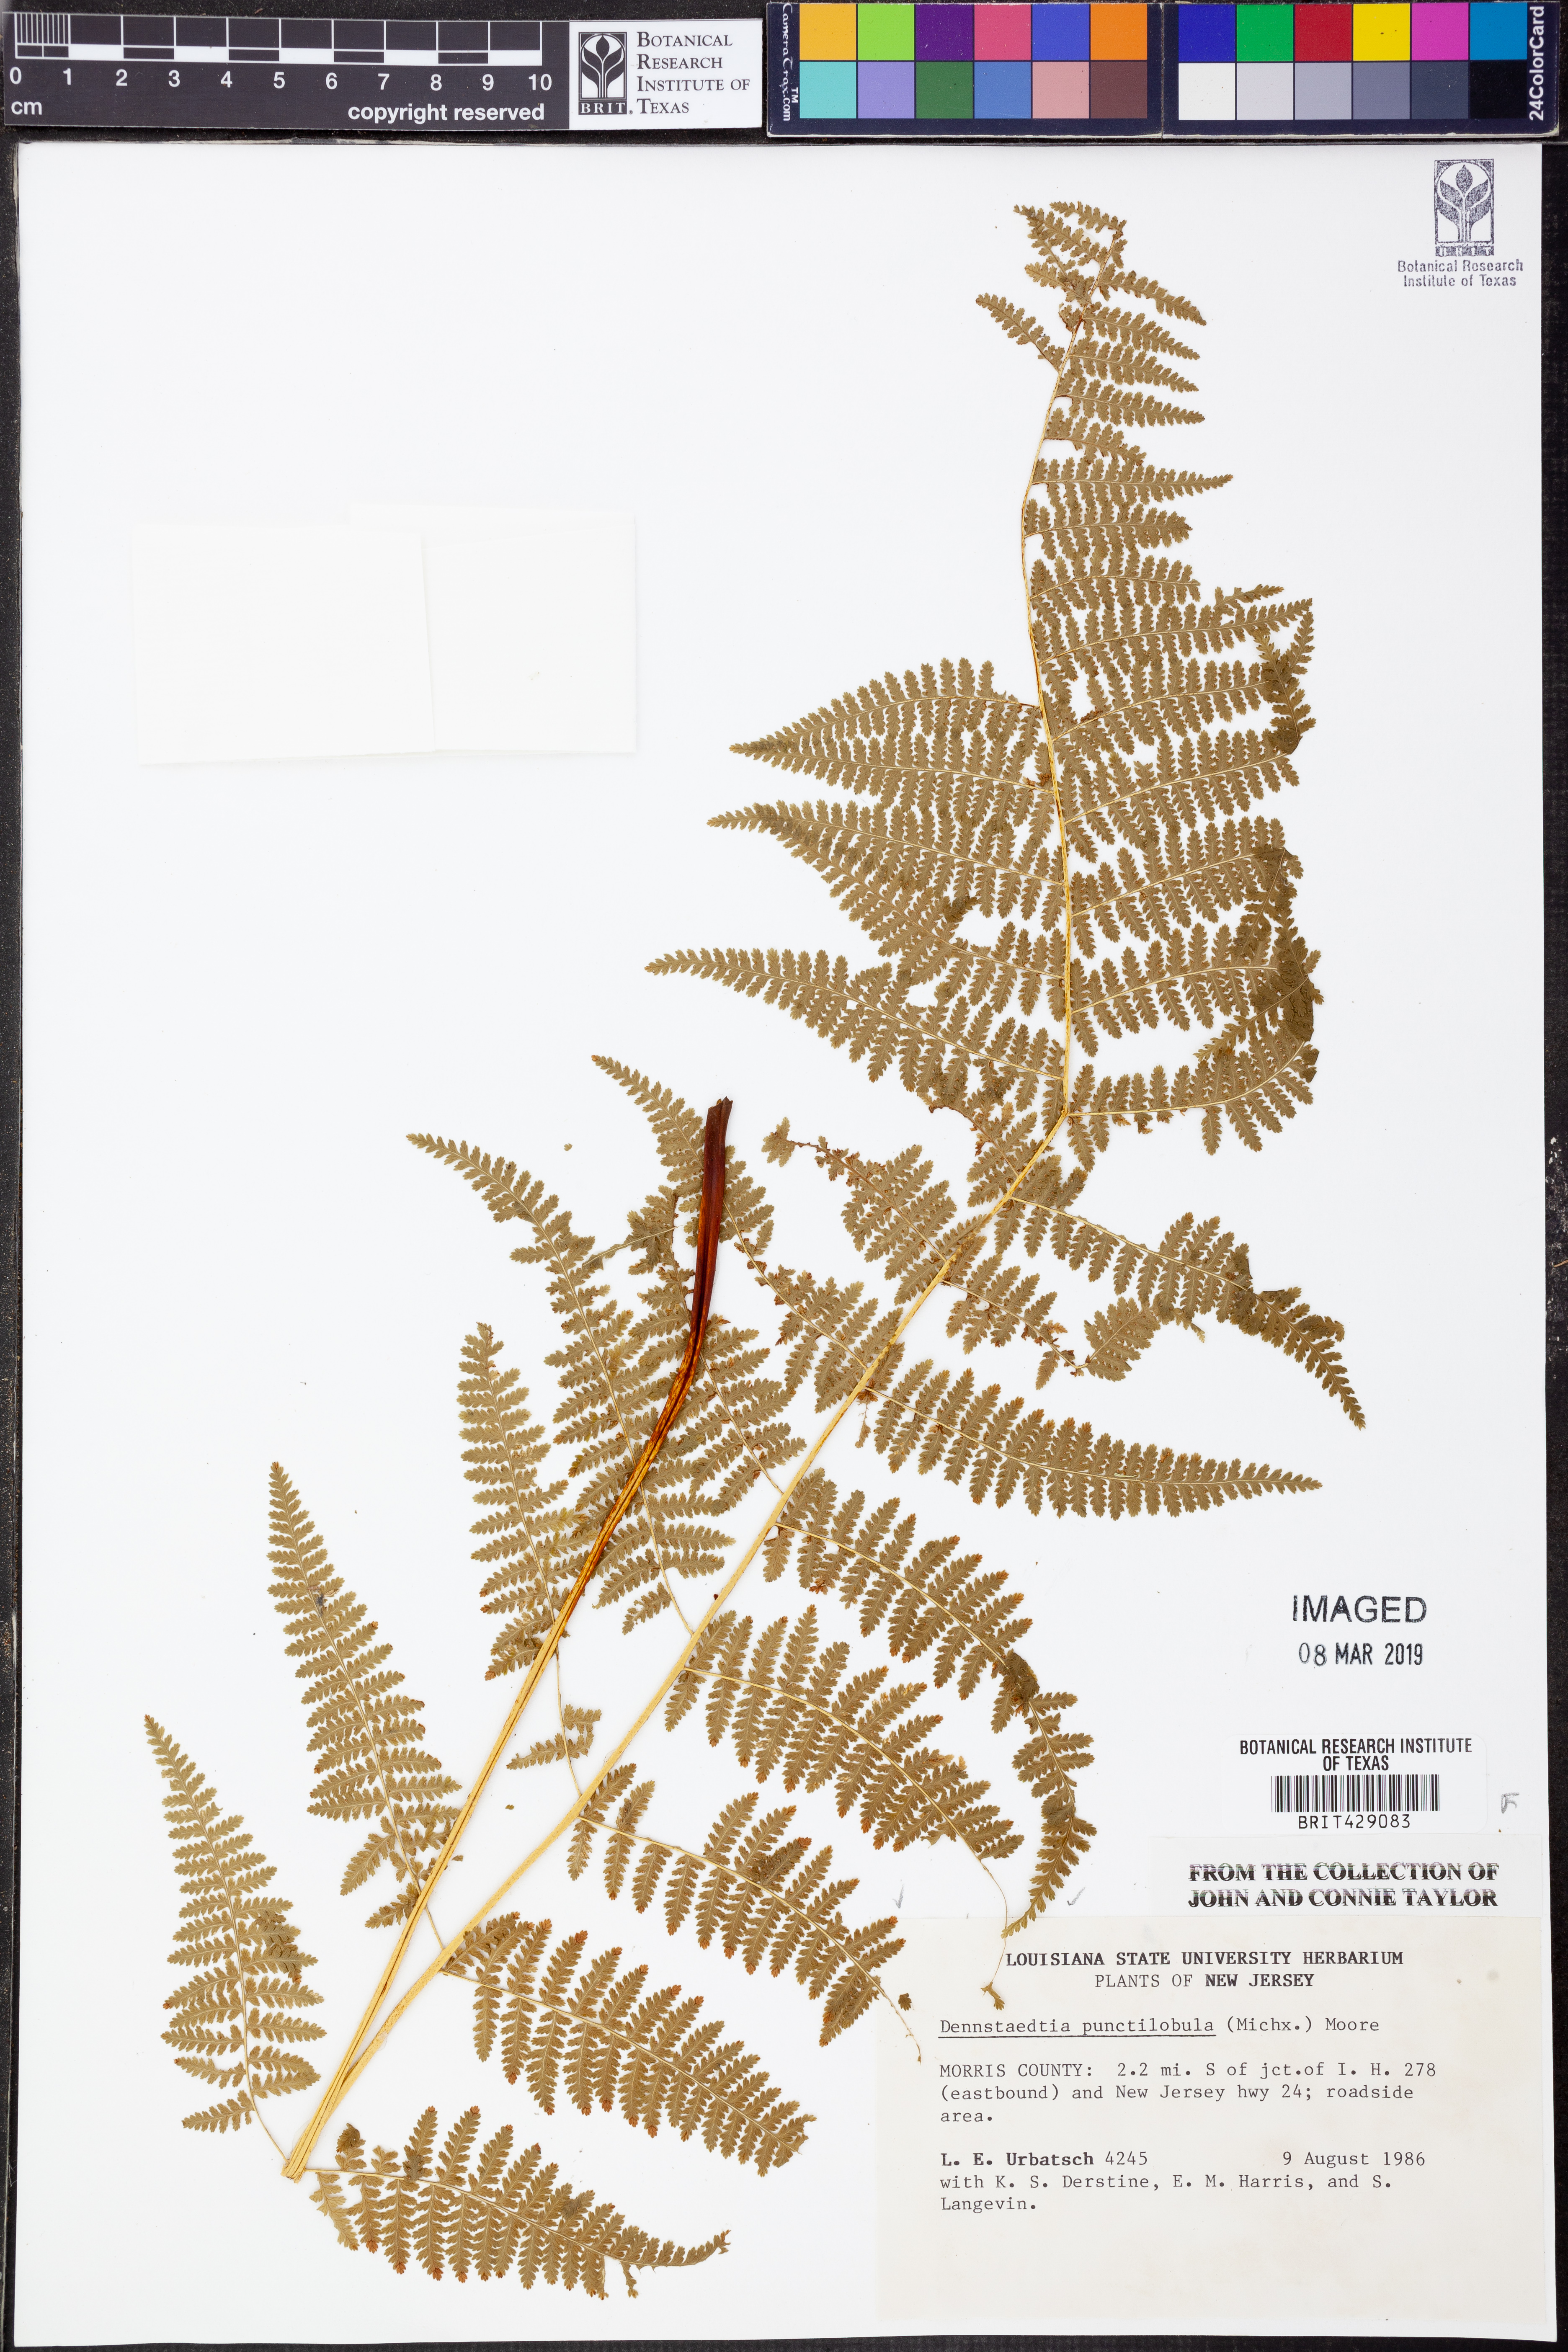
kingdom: Plantae
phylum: Tracheophyta
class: Polypodiopsida
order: Polypodiales
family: Dennstaedtiaceae
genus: Sitobolium
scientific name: Sitobolium punctilobum
